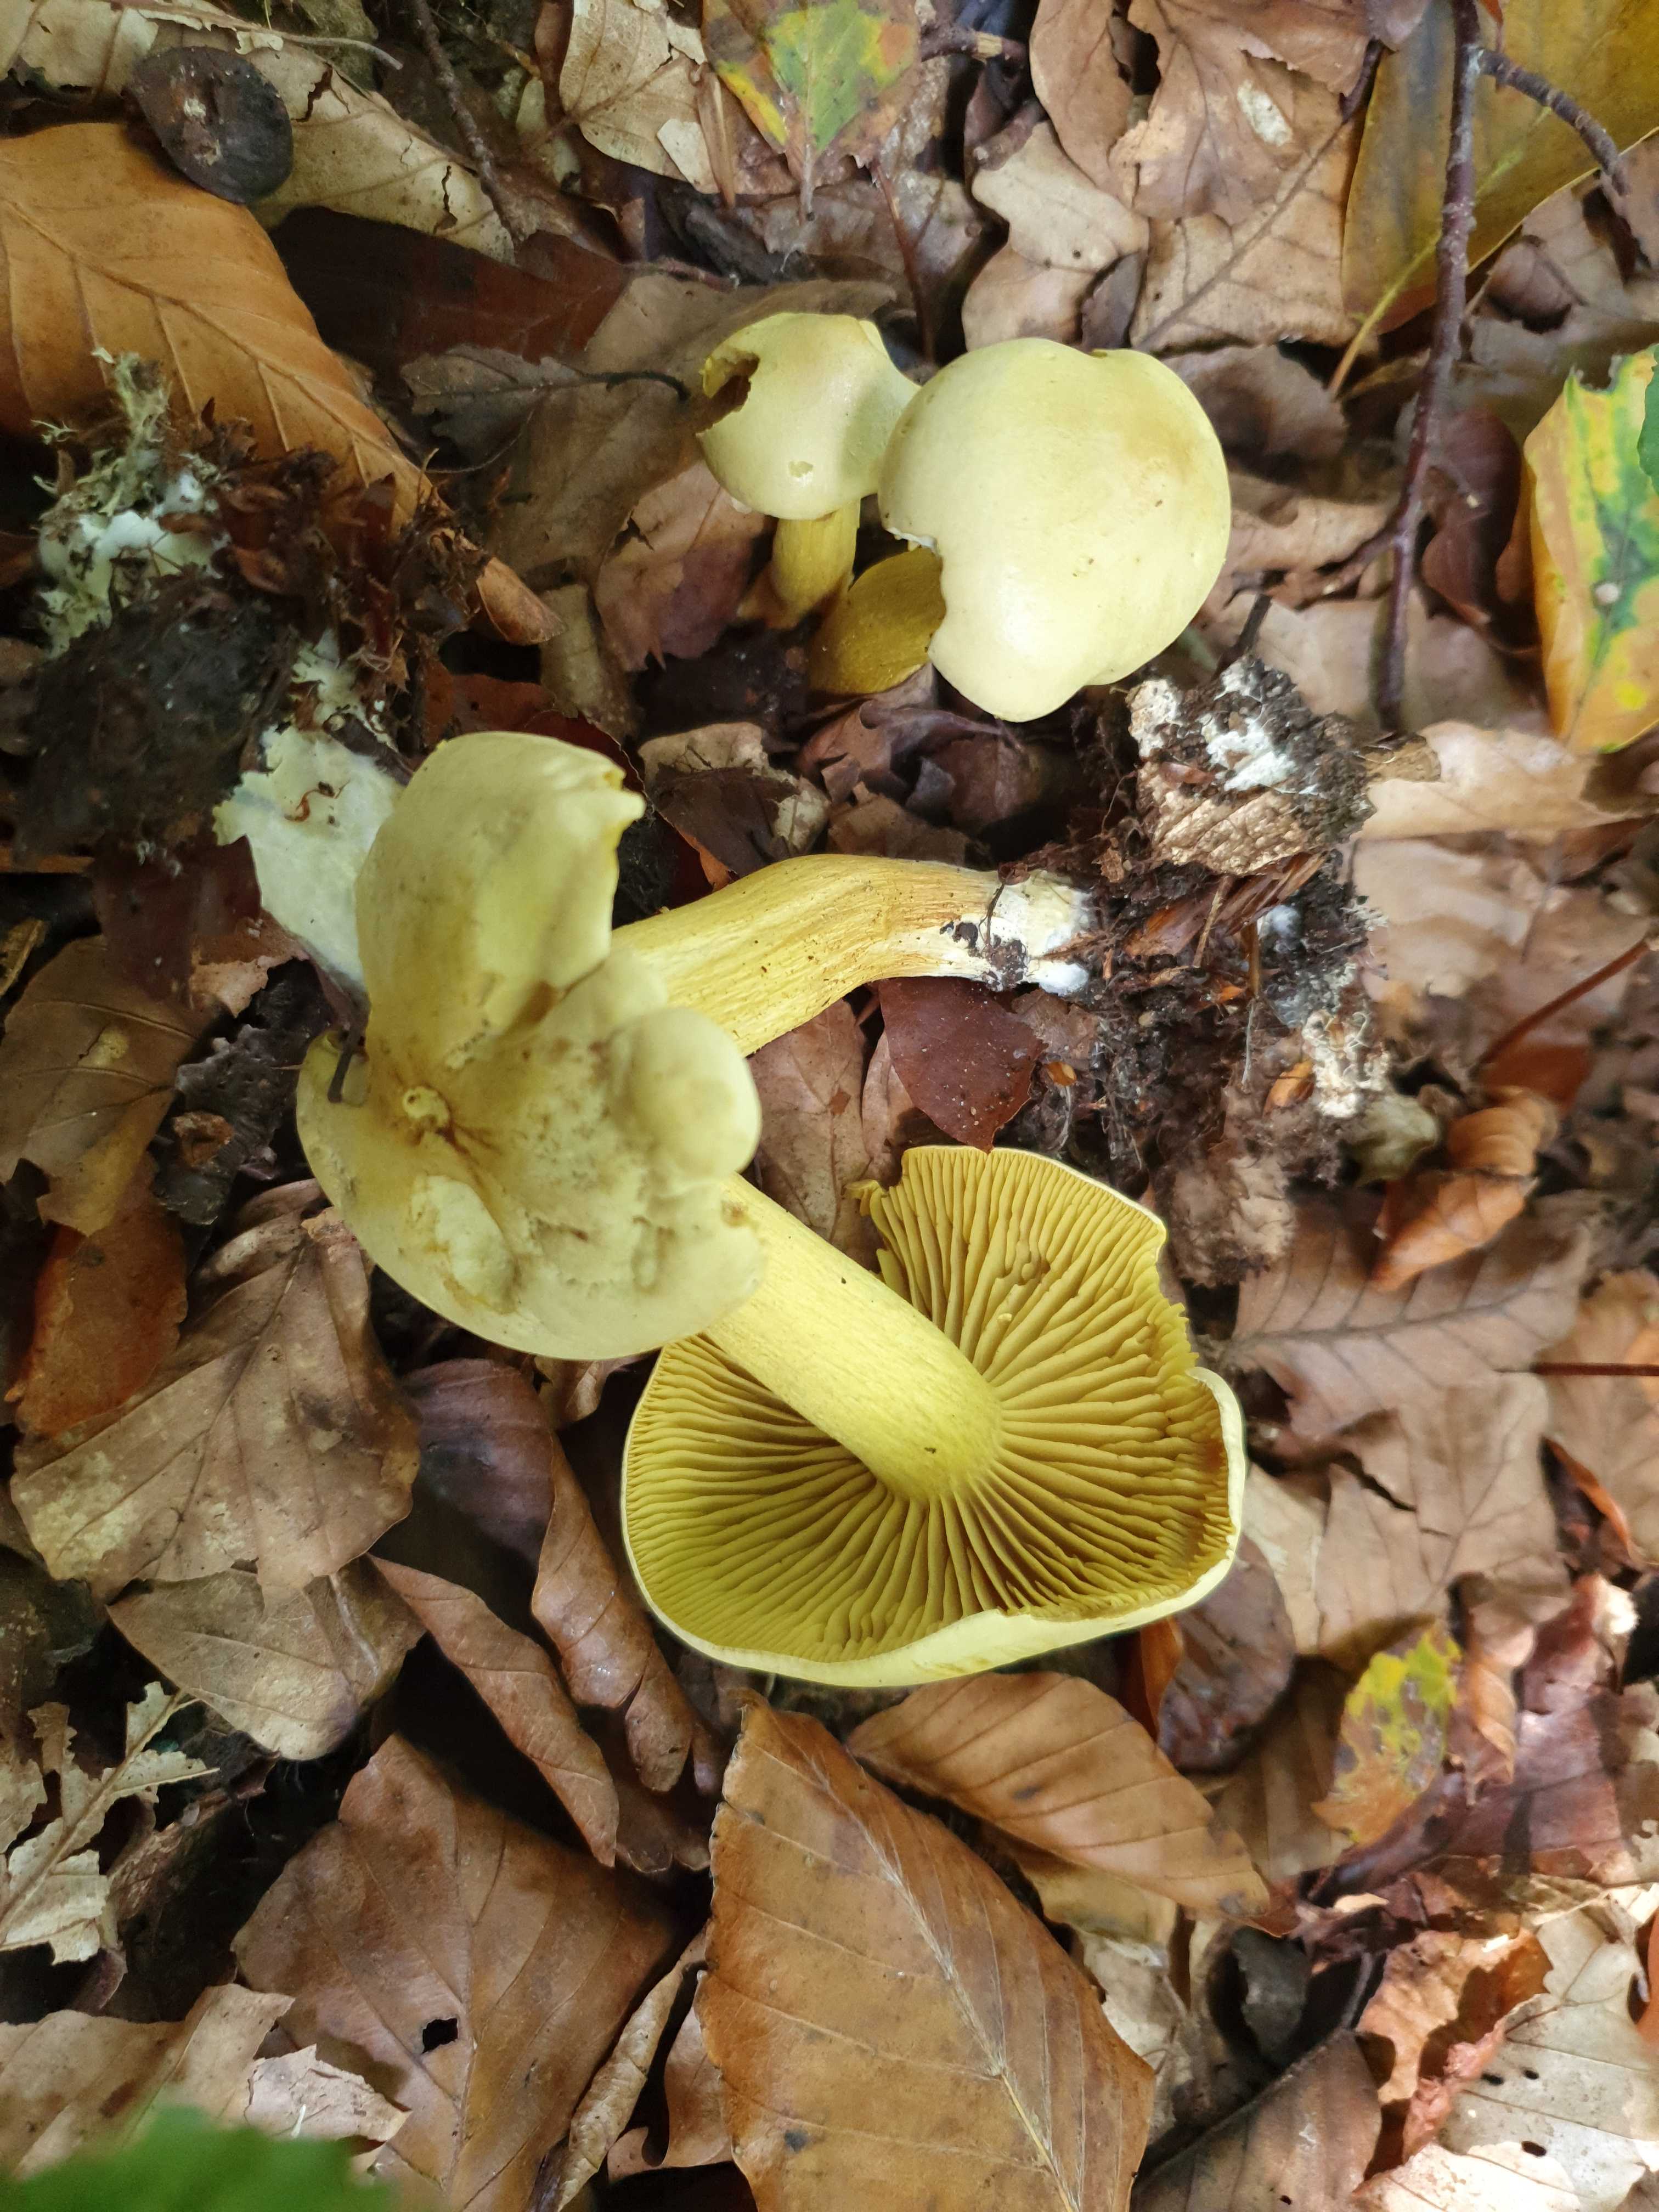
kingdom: Fungi
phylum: Basidiomycota
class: Agaricomycetes
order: Agaricales
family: Tricholomataceae
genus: Tricholoma
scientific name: Tricholoma sulphureum
